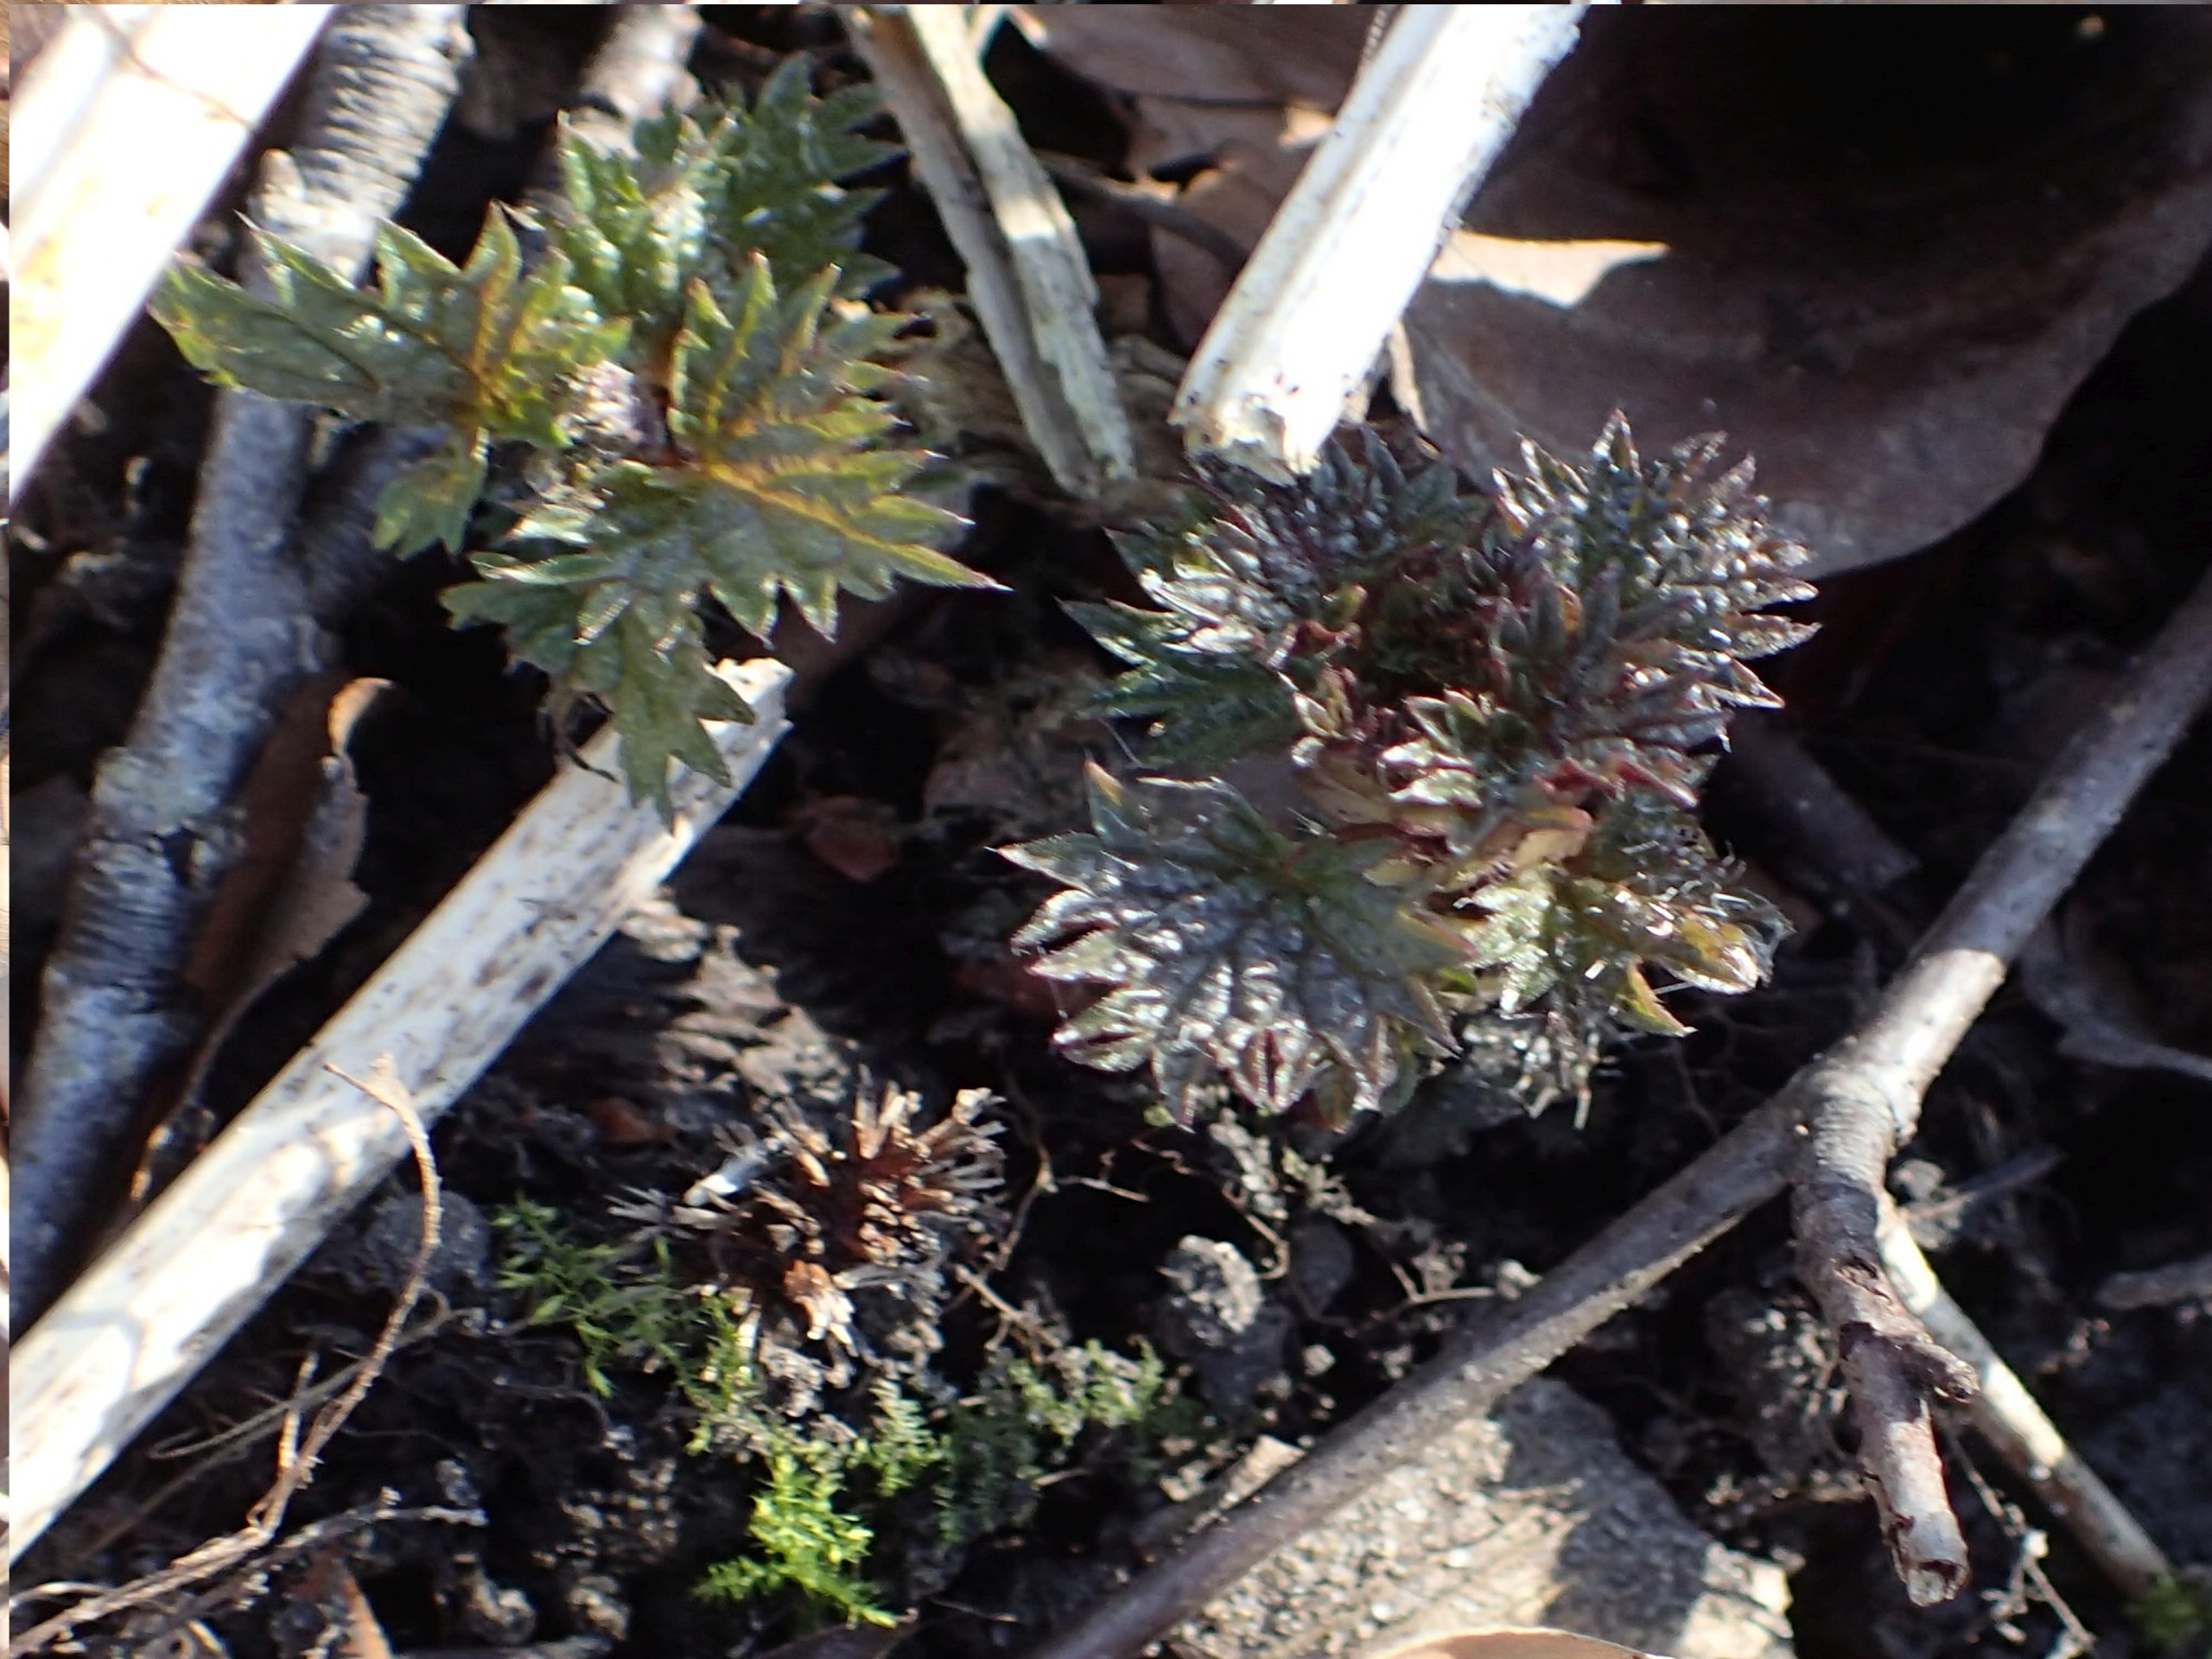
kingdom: Plantae
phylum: Tracheophyta
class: Magnoliopsida
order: Rosales
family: Urticaceae
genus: Urtica
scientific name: Urtica dioica
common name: Stor nælde
